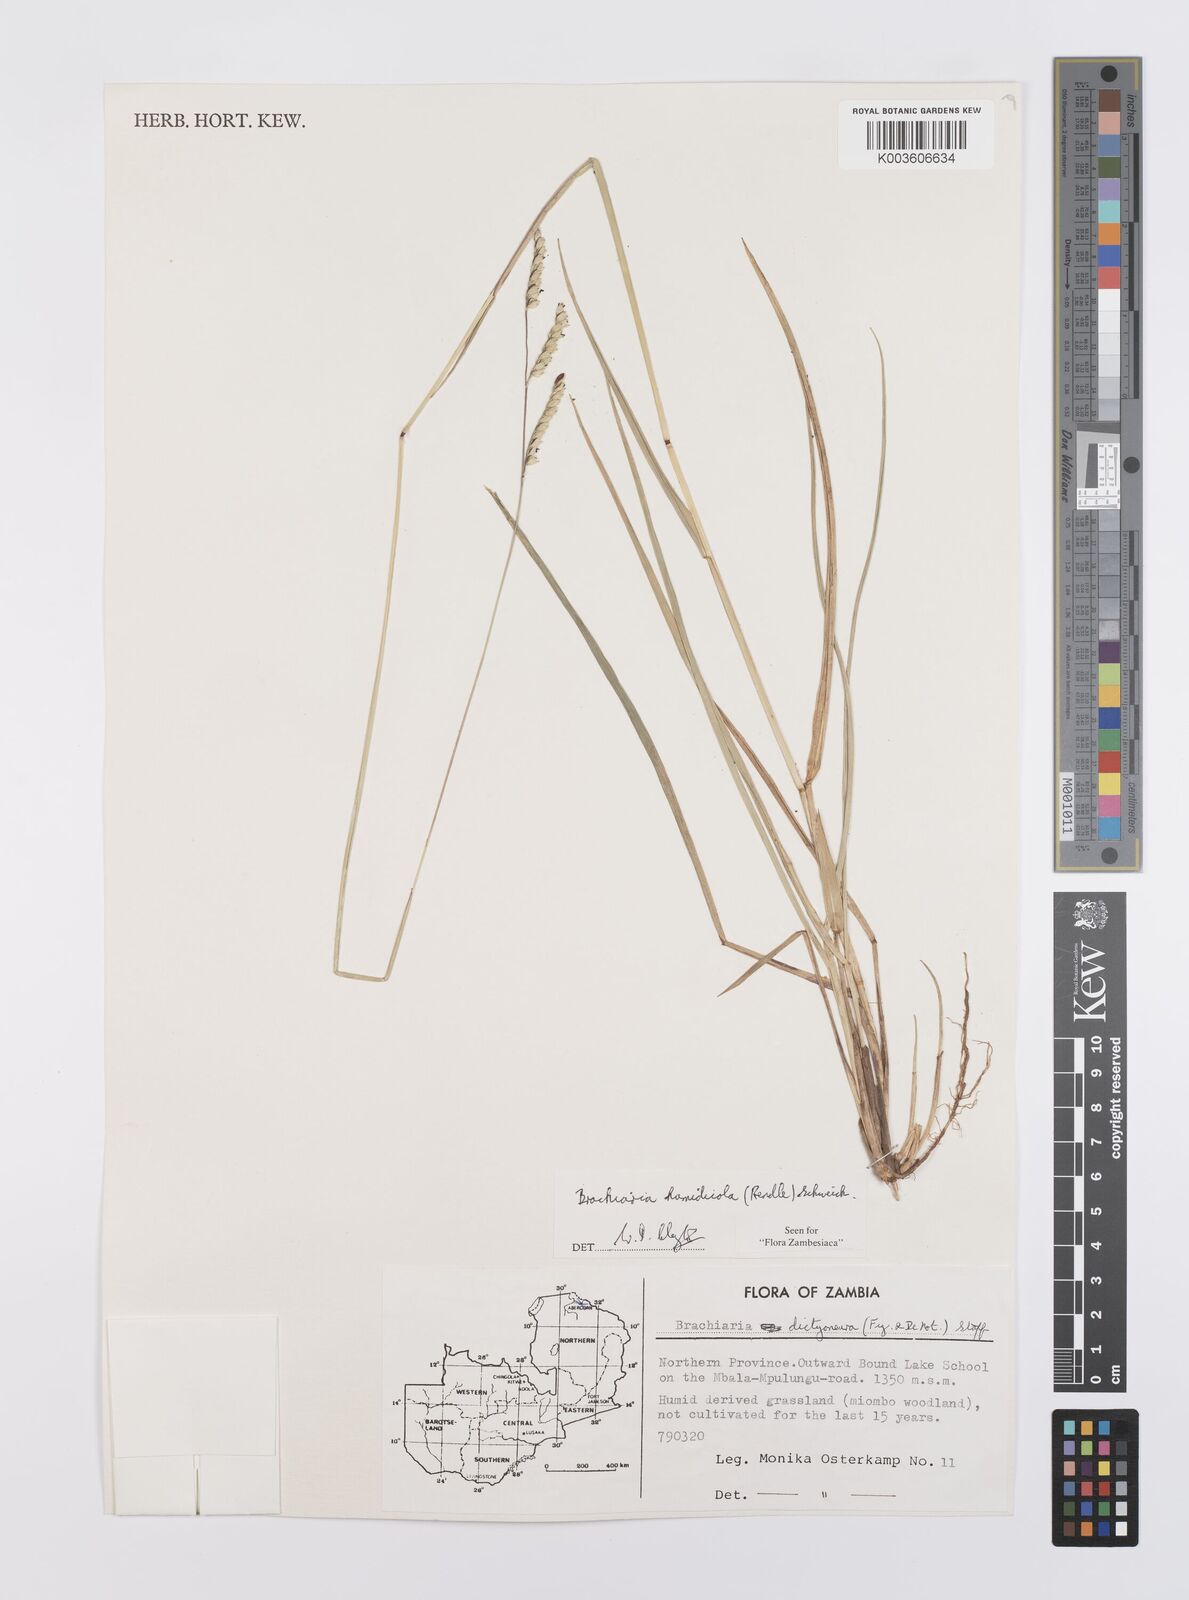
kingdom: Plantae
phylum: Tracheophyta
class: Liliopsida
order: Poales
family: Poaceae
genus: Urochloa
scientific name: Urochloa dictyoneura
